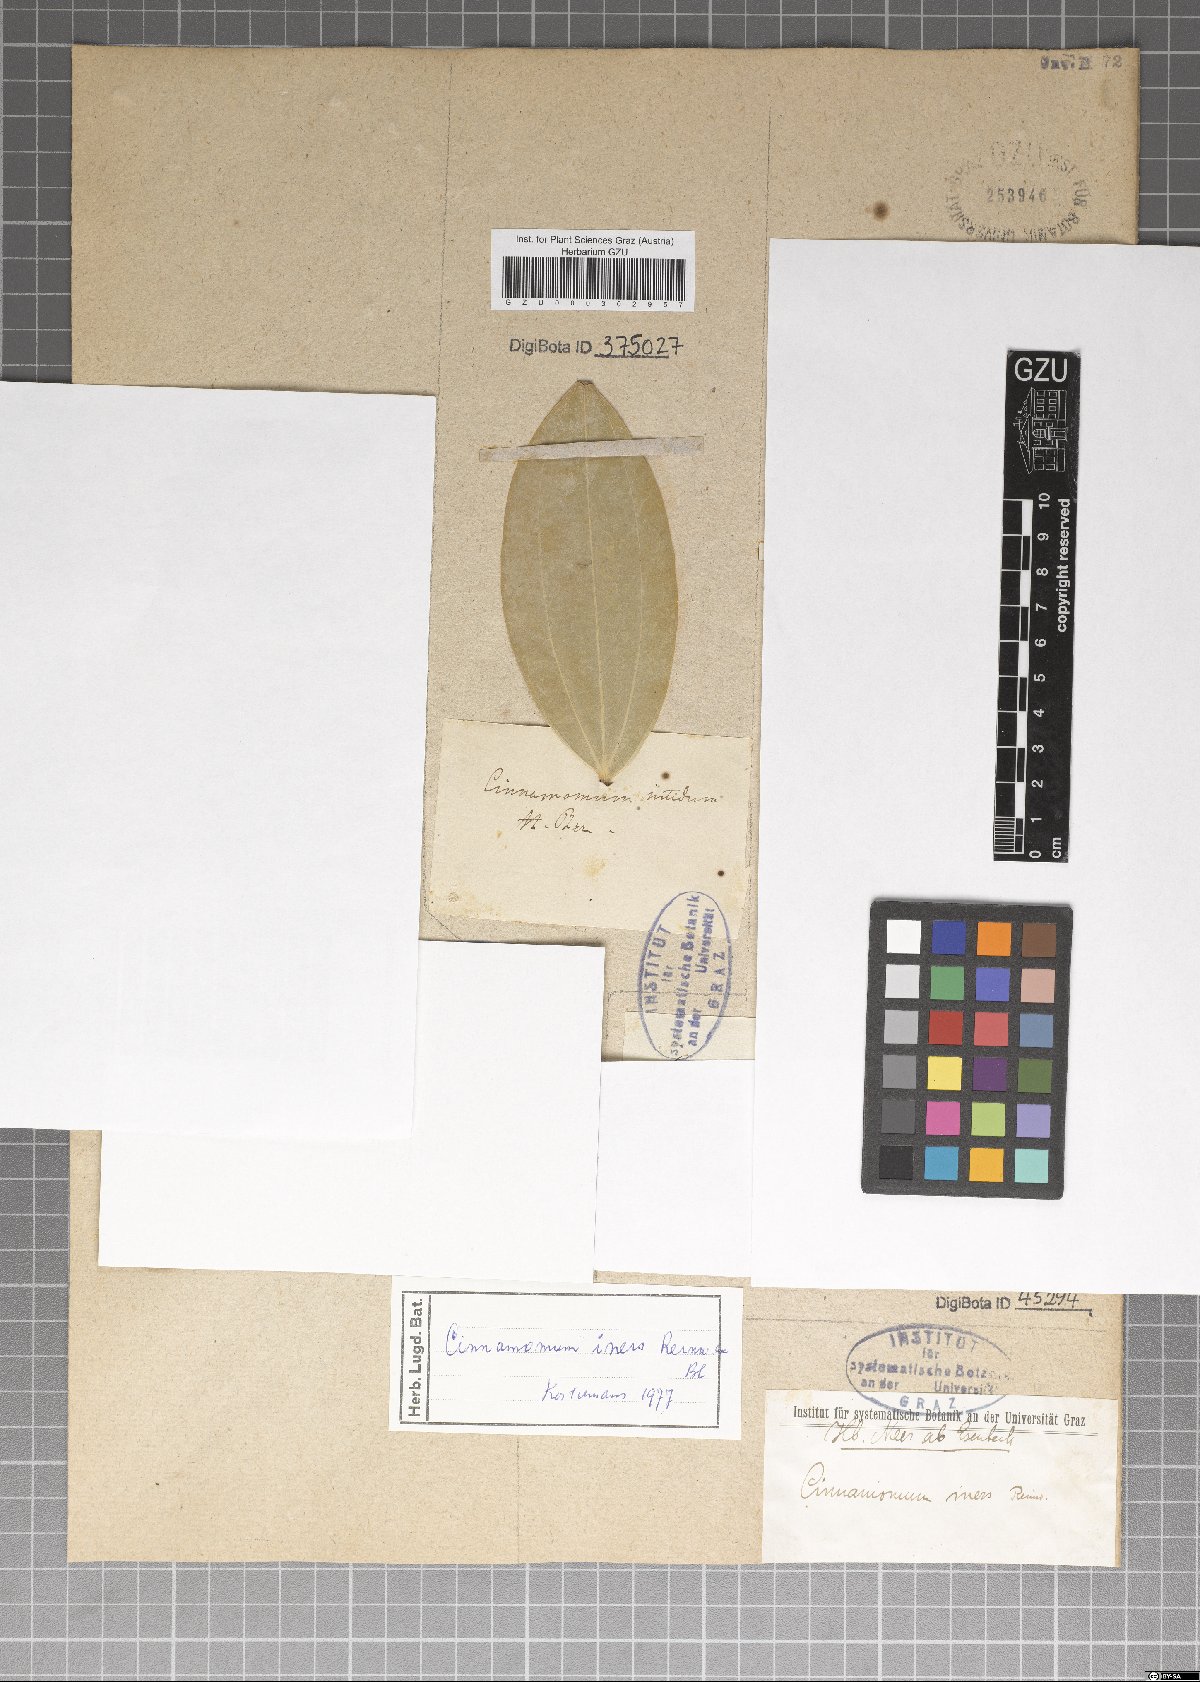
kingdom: Plantae
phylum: Tracheophyta
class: Magnoliopsida
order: Laurales
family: Lauraceae
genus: Cinnamomum
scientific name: Cinnamomum iners
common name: Wild cinnamon
